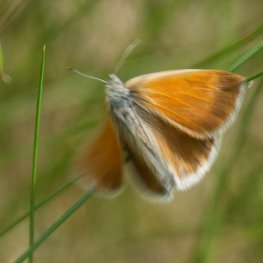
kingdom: Animalia
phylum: Arthropoda
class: Insecta
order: Lepidoptera
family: Nymphalidae
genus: Coenonympha
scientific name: Coenonympha tullia
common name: Large Heath
